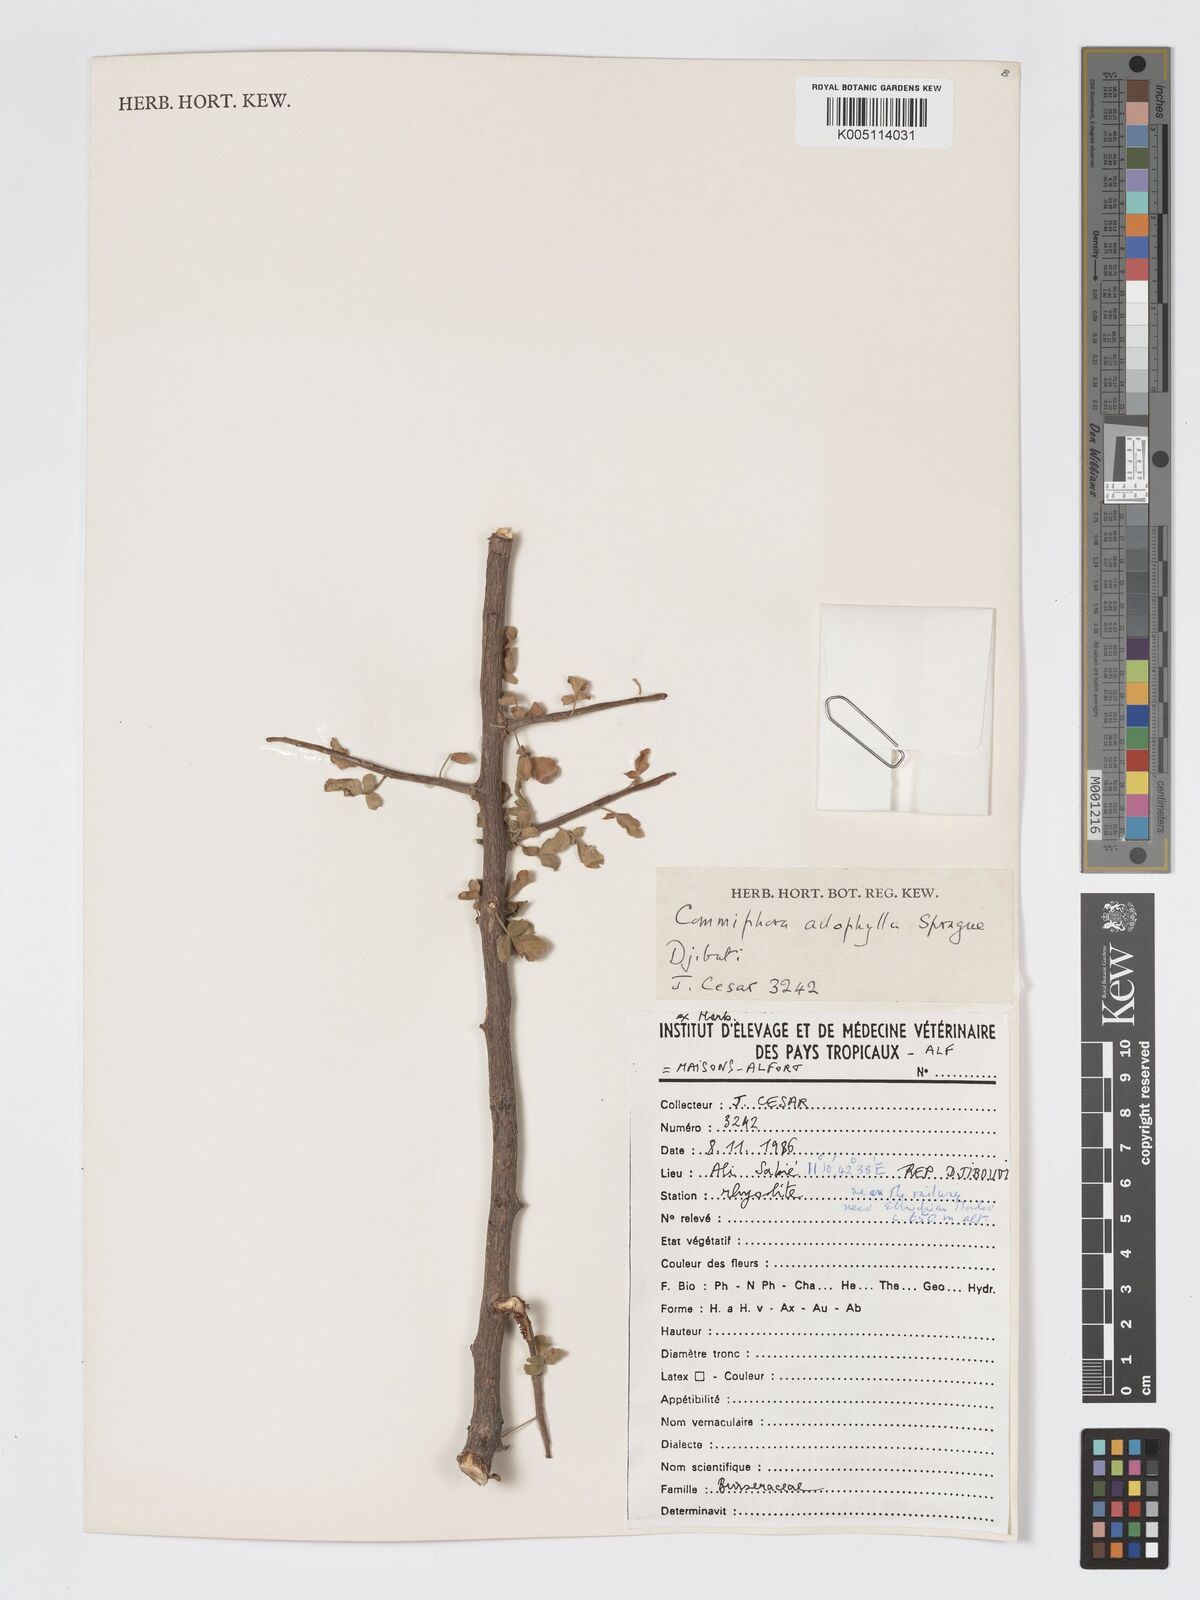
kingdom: Plantae
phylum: Tracheophyta
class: Magnoliopsida
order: Sapindales
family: Burseraceae
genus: Commiphora
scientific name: Commiphora kataf
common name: Bisabol myrrh
